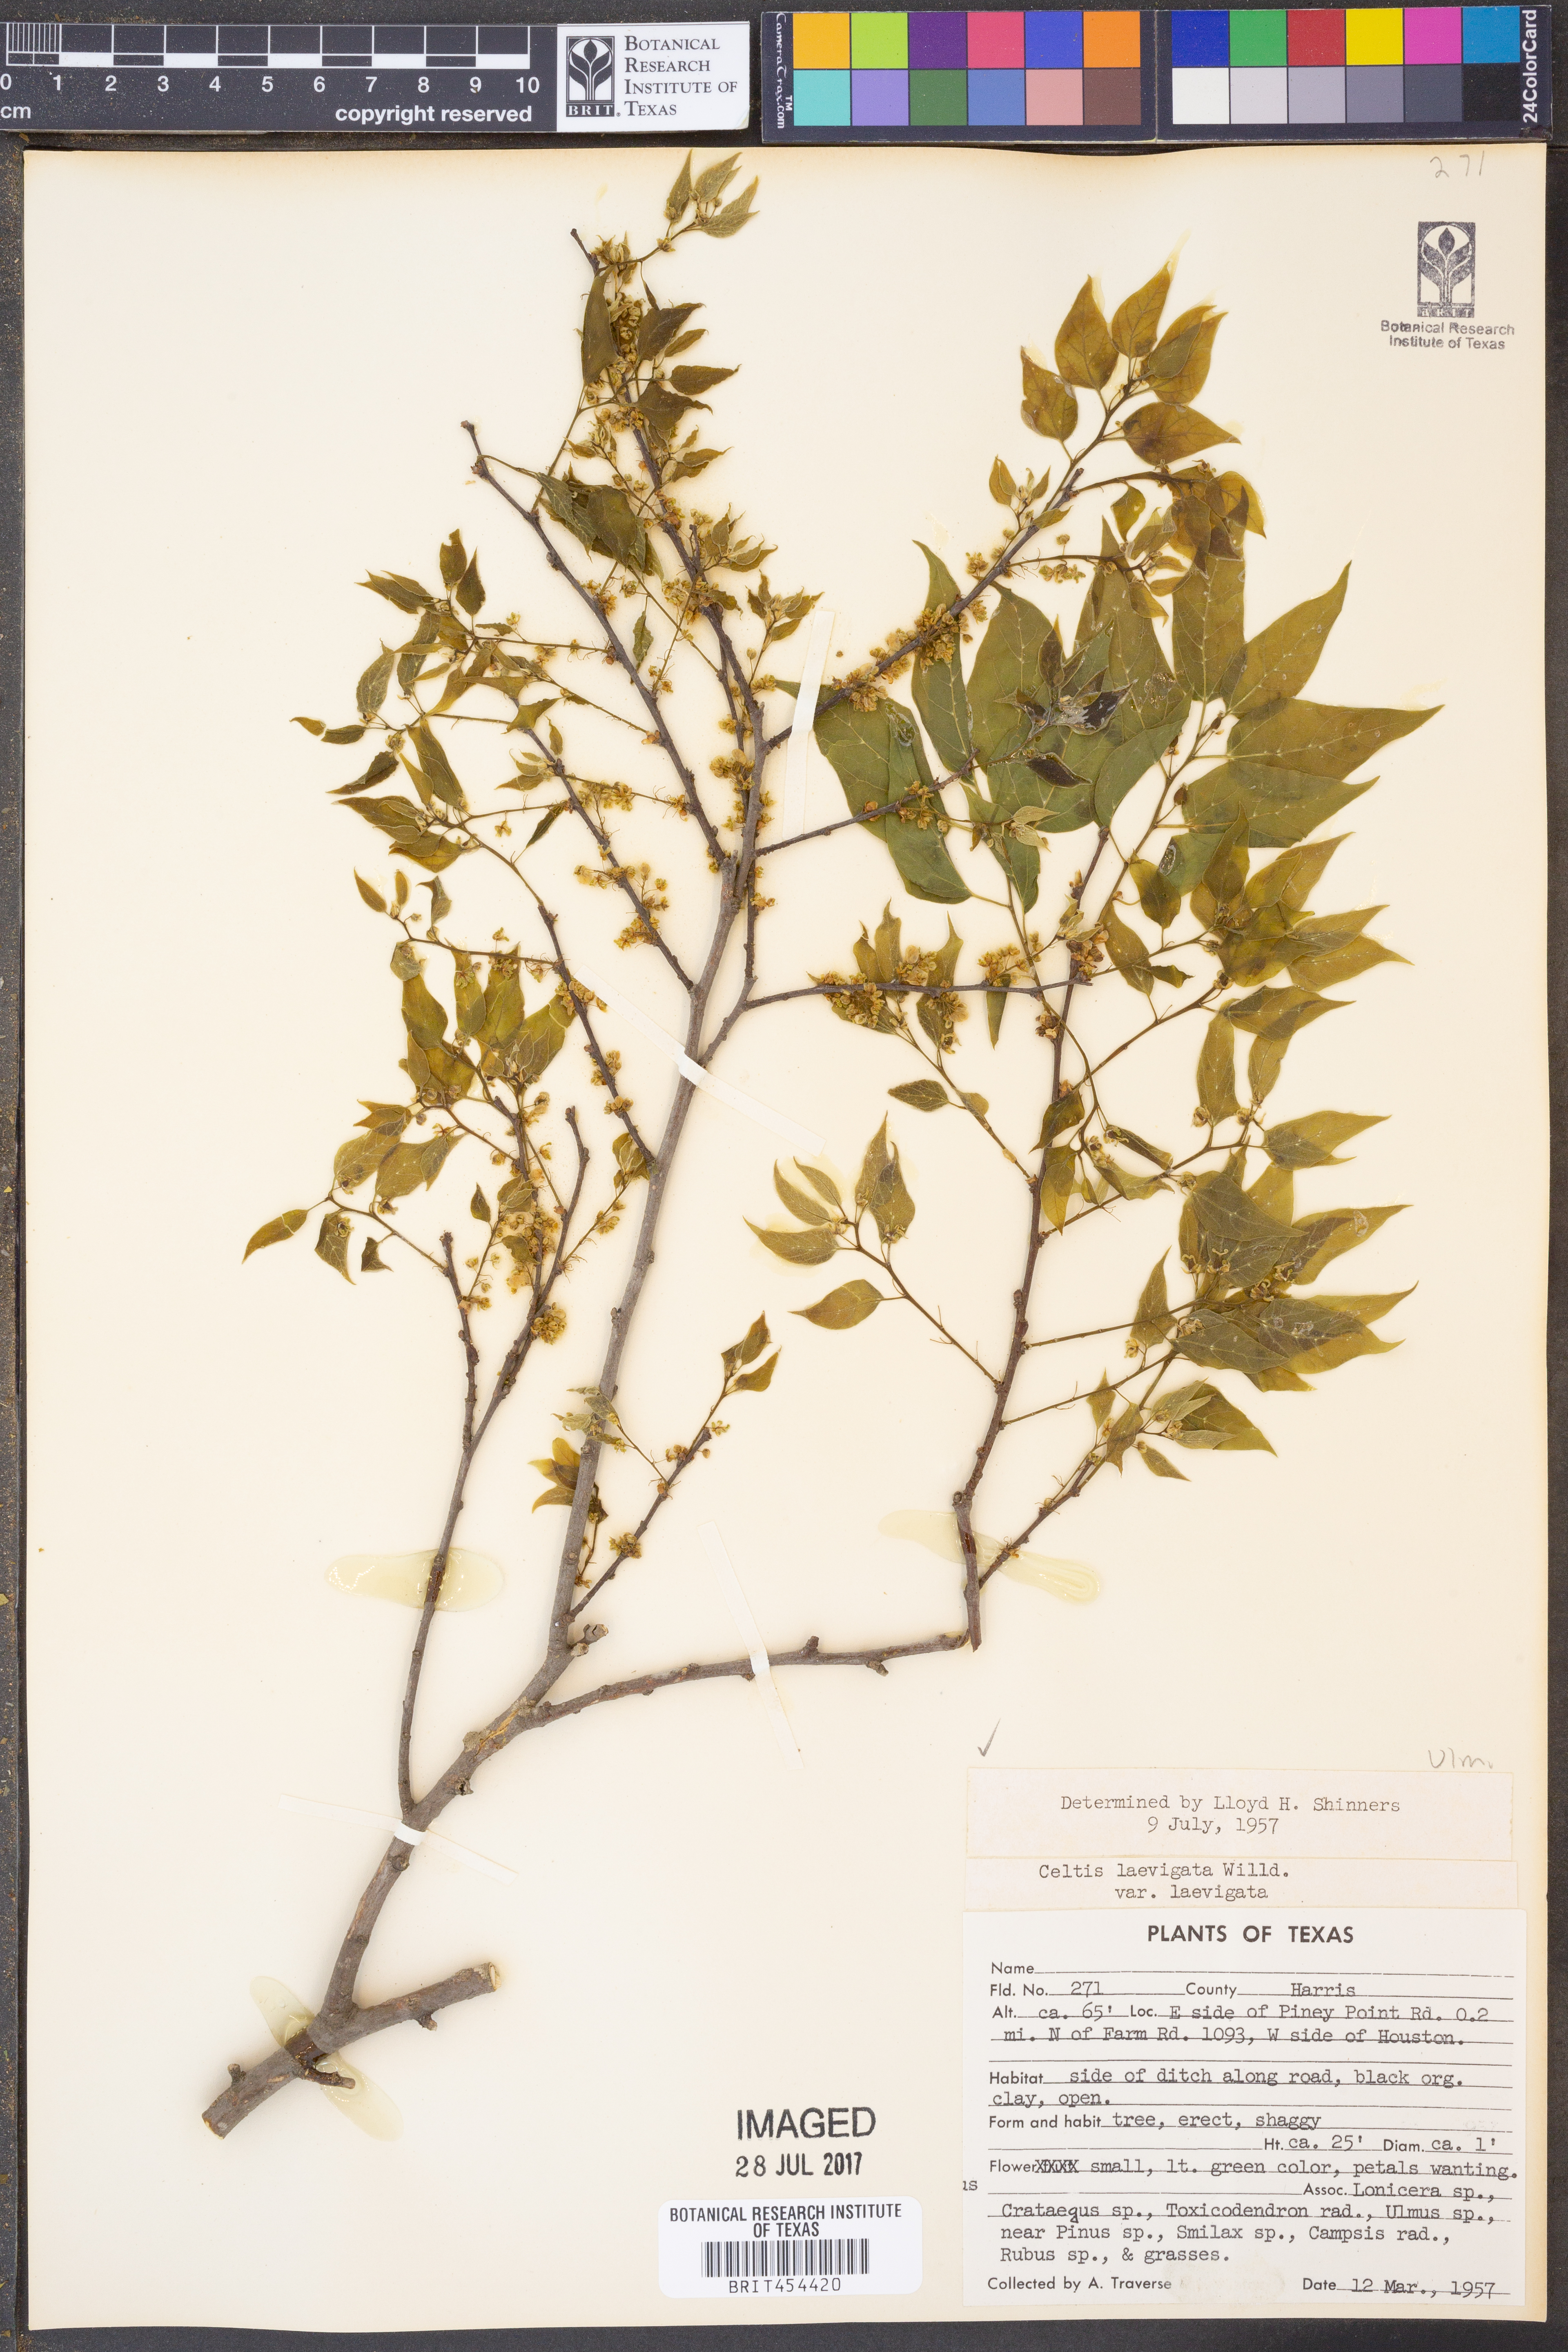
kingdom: Plantae
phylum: Tracheophyta
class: Magnoliopsida
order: Rosales
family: Cannabaceae
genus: Celtis
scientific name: Celtis laevigata
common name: Sugarberry
